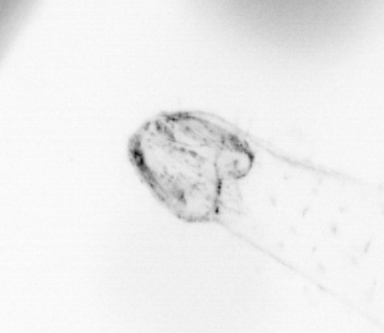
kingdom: Animalia
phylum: Chordata
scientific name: Chordata
